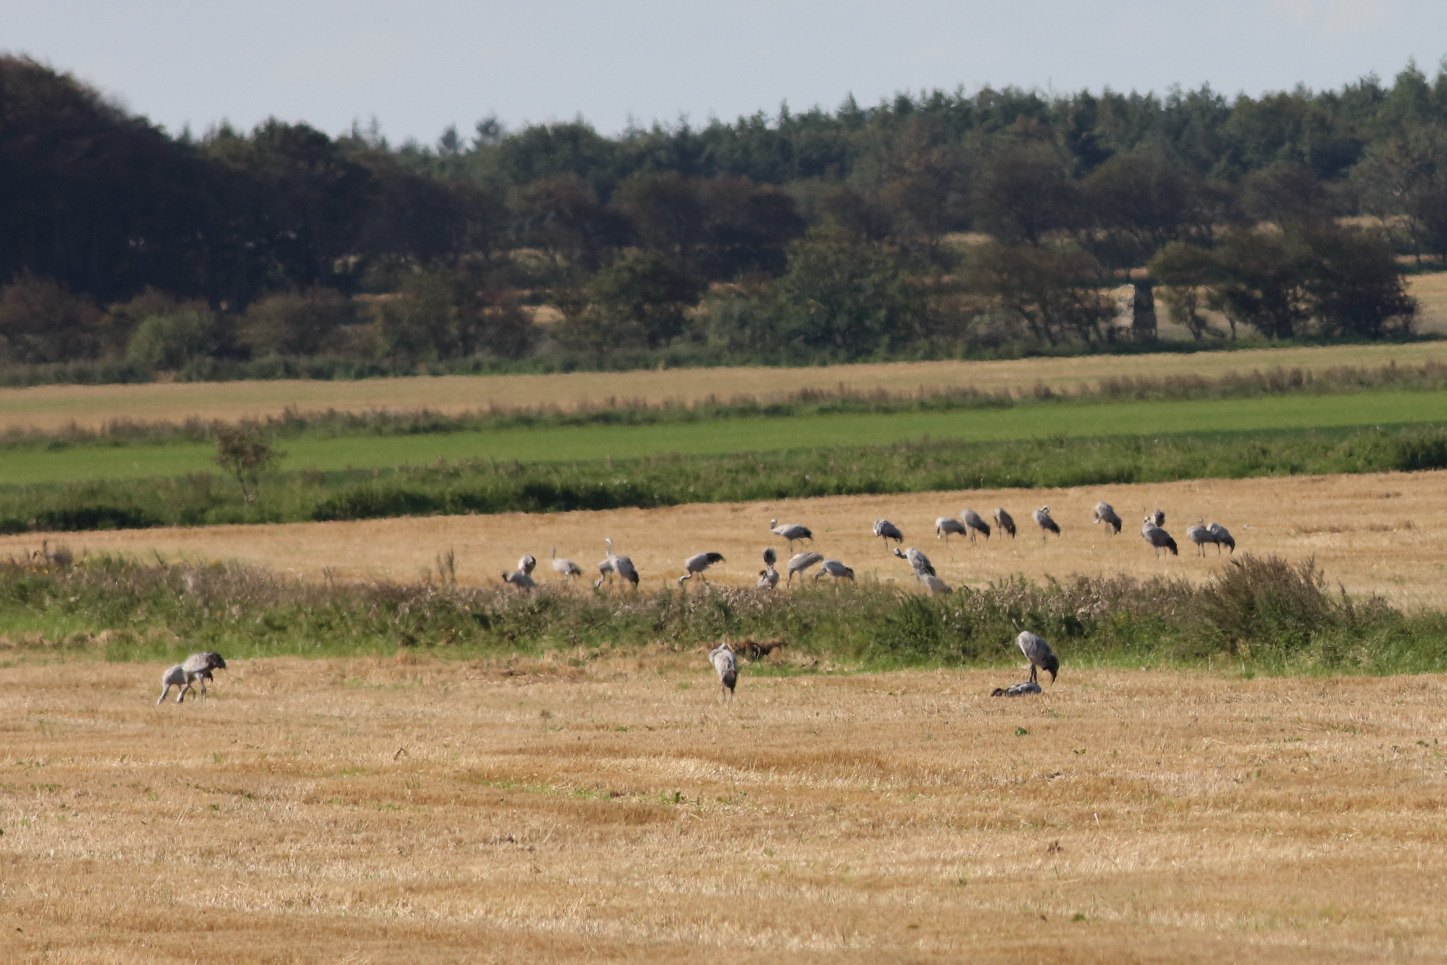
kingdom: Animalia
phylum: Chordata
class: Aves
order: Gruiformes
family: Gruidae
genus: Grus
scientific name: Grus grus
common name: Trane
